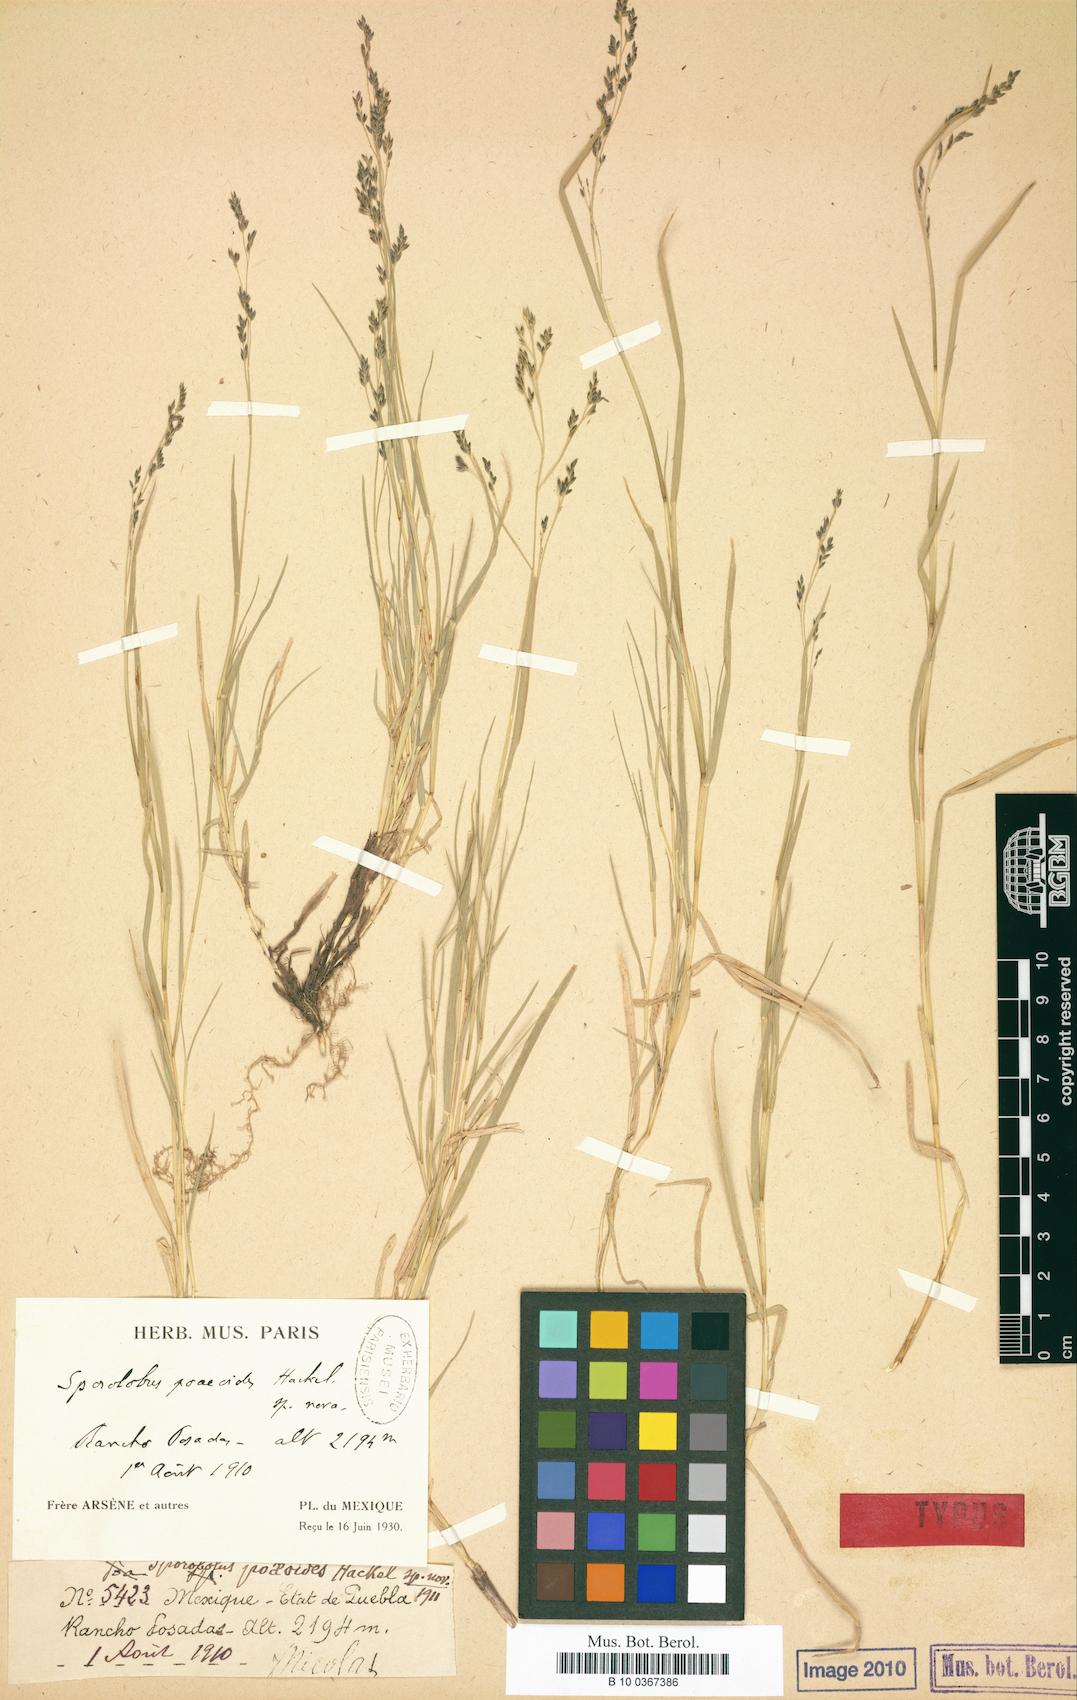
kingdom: Plantae
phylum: Tracheophyta
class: Liliopsida
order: Poales
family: Poaceae
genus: Muhlenbergia
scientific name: Muhlenbergia plumbea
